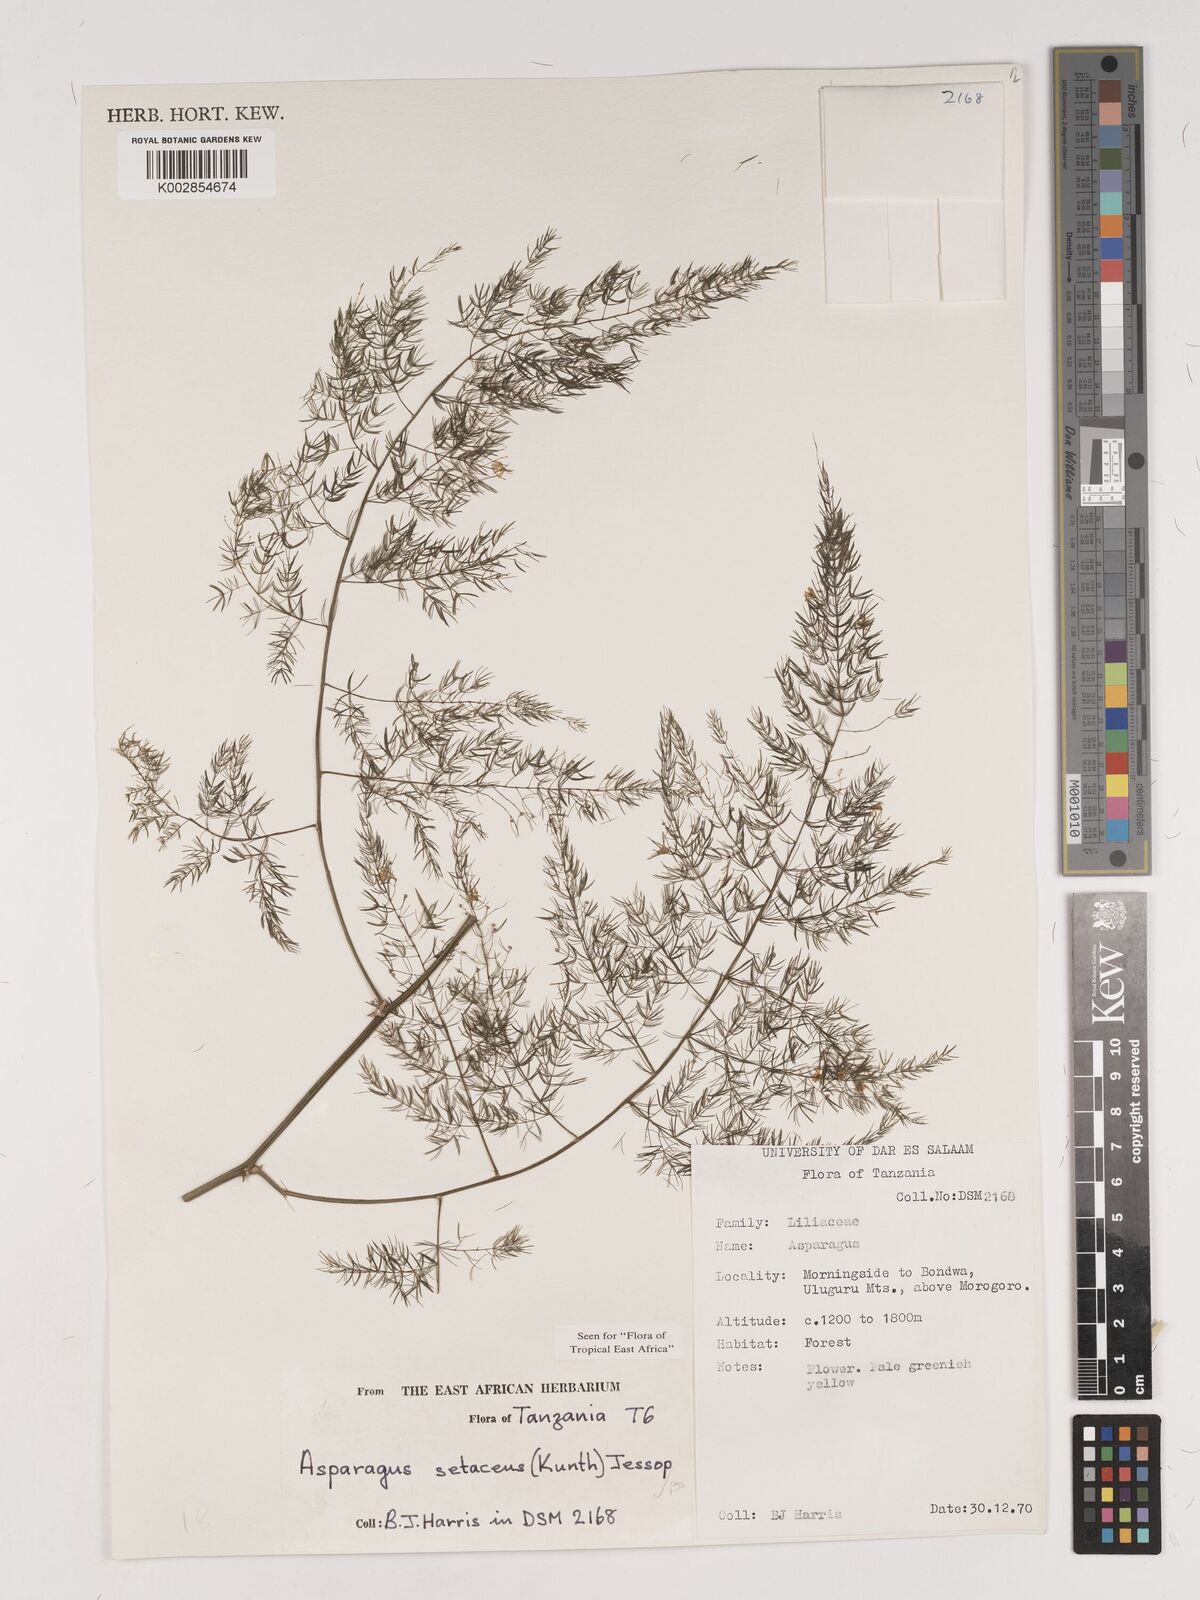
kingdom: Plantae
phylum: Tracheophyta
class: Liliopsida
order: Asparagales
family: Asparagaceae
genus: Asparagus
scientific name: Asparagus setaceus
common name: Common asparagus fern
